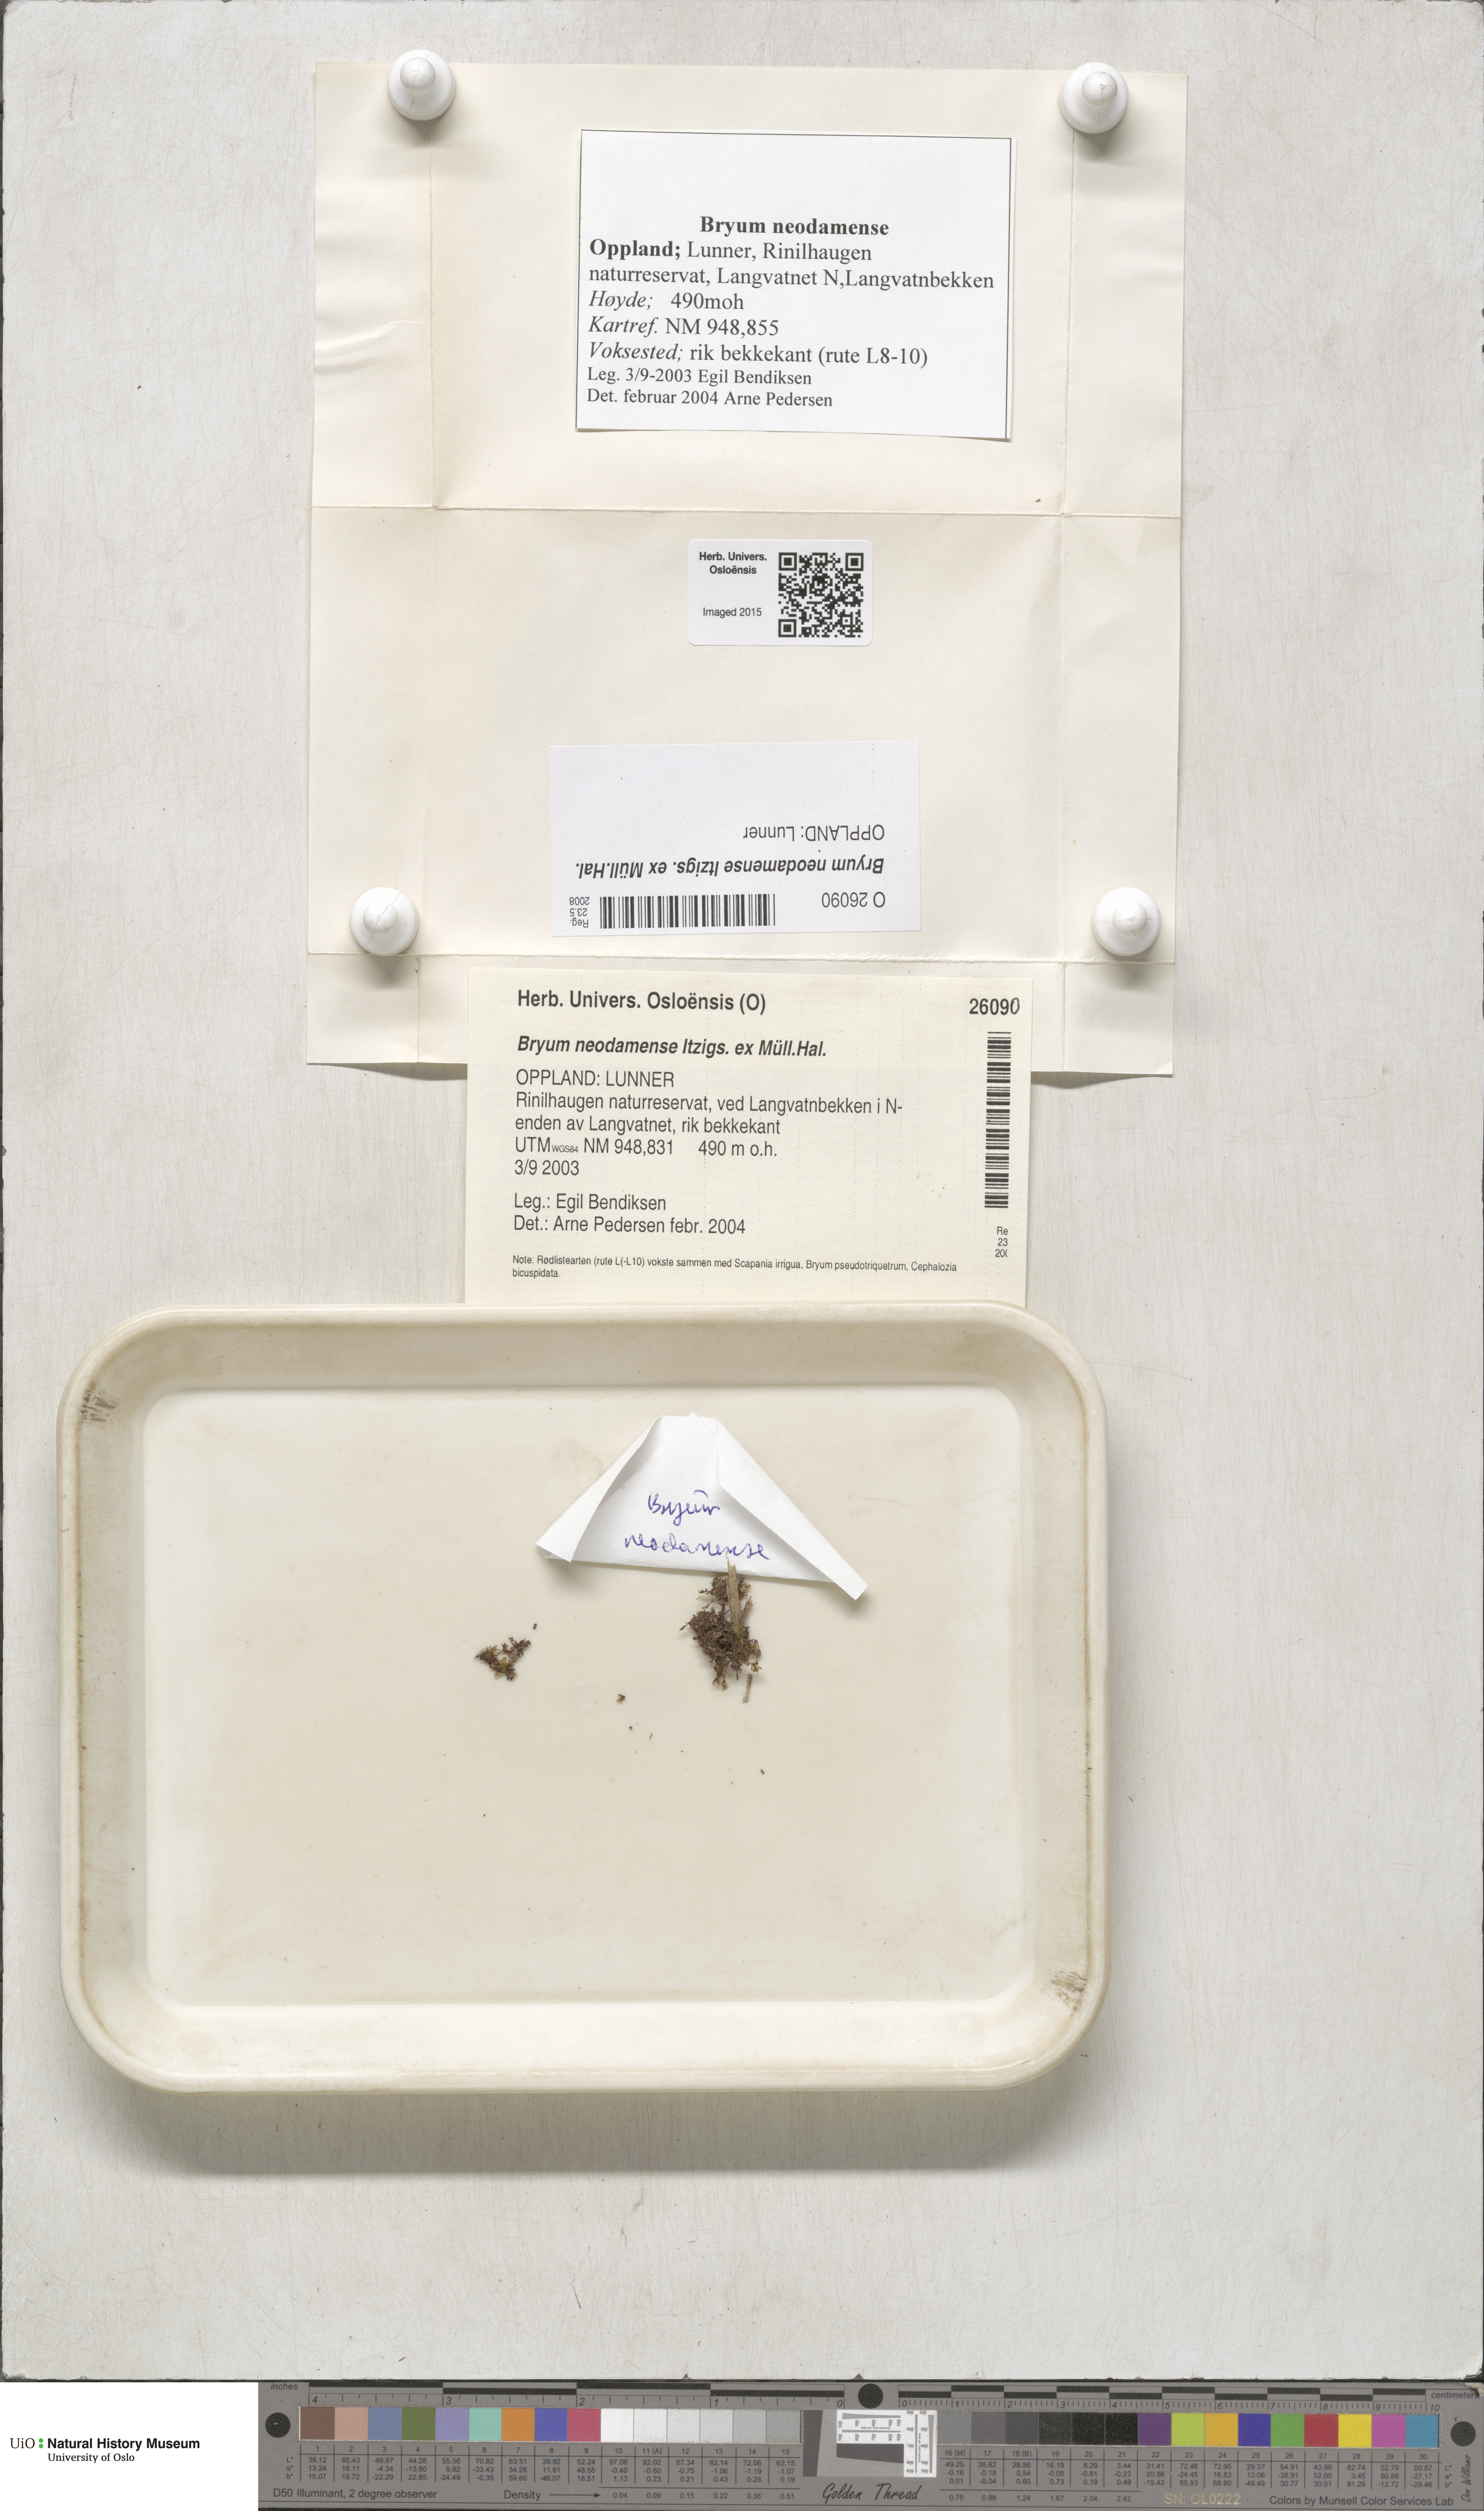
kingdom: Plantae
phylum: Bryophyta
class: Bryopsida
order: Bryales
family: Bryaceae
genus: Ptychostomum
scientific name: Ptychostomum pseudotriquetrum
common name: Long-leaved thread moss
